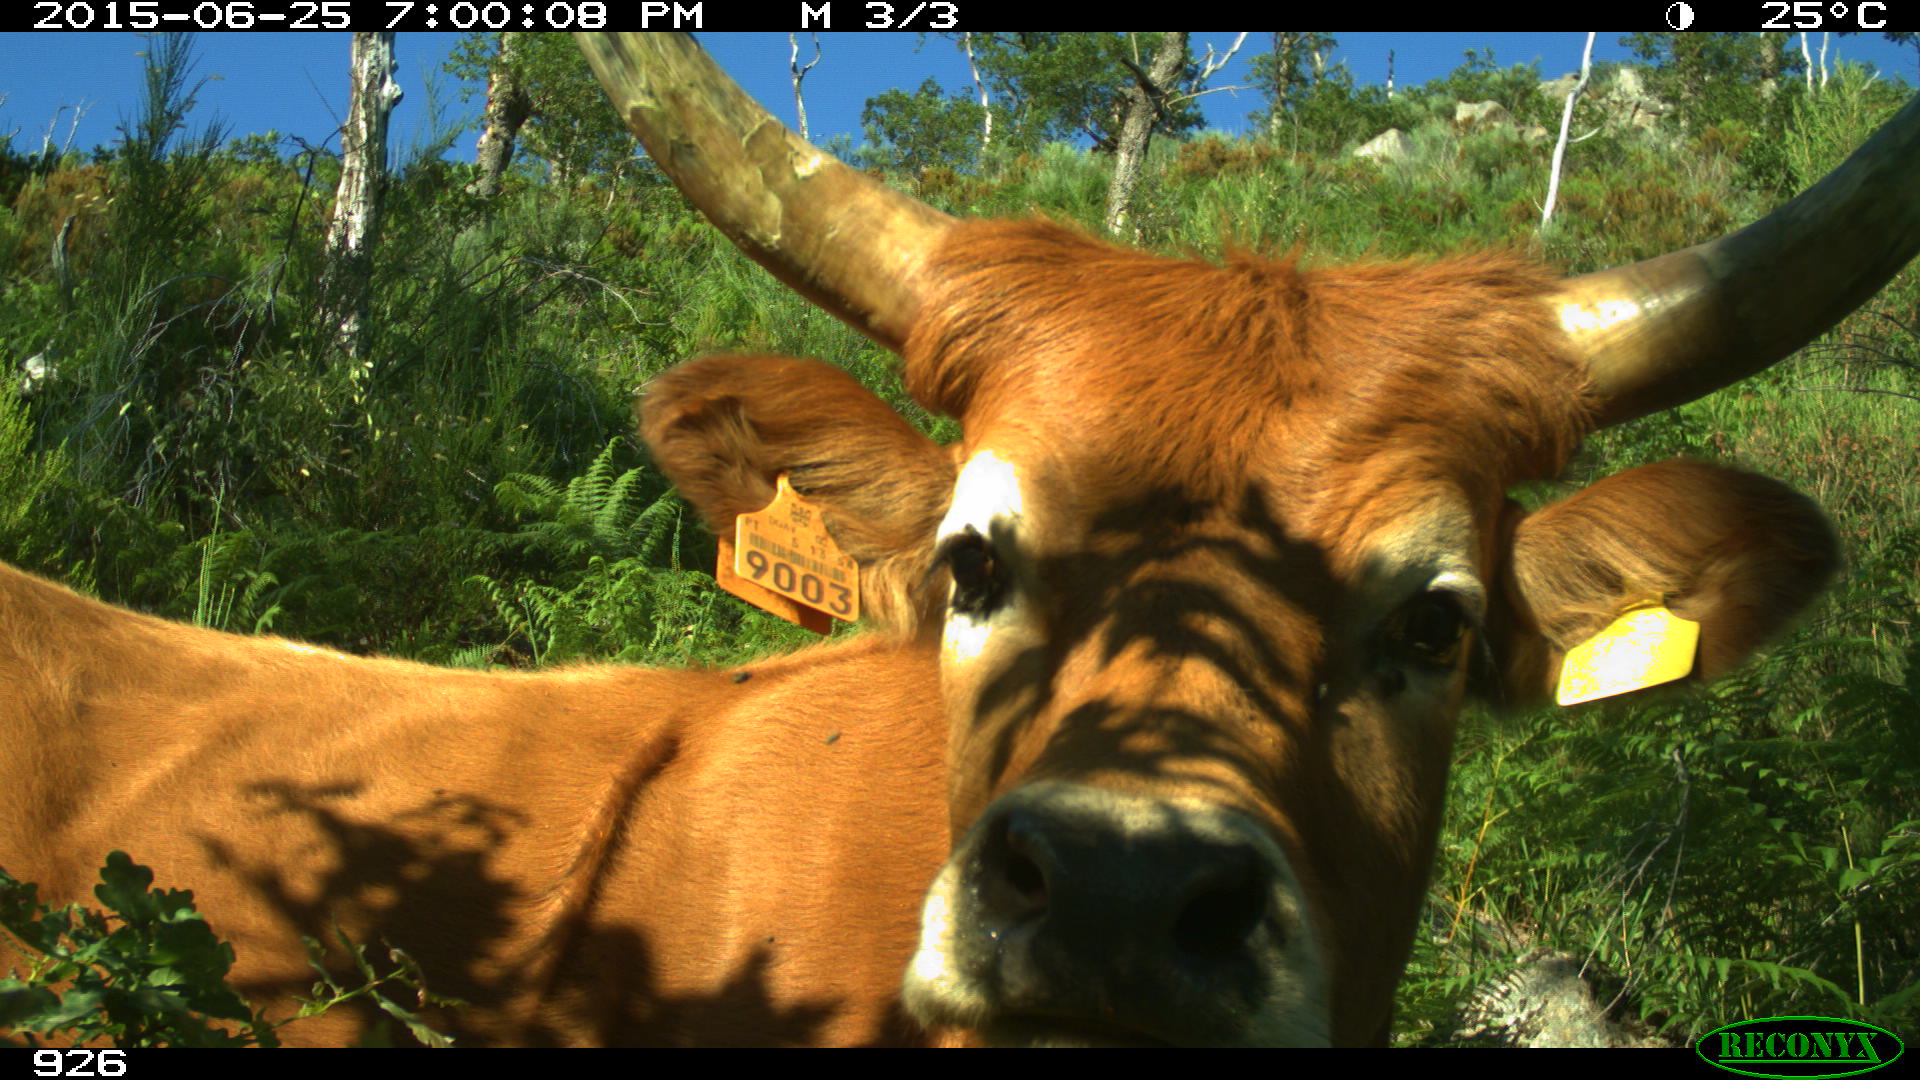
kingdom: Animalia
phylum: Chordata
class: Mammalia
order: Artiodactyla
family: Bovidae
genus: Bos
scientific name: Bos taurus
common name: Domesticated cattle
